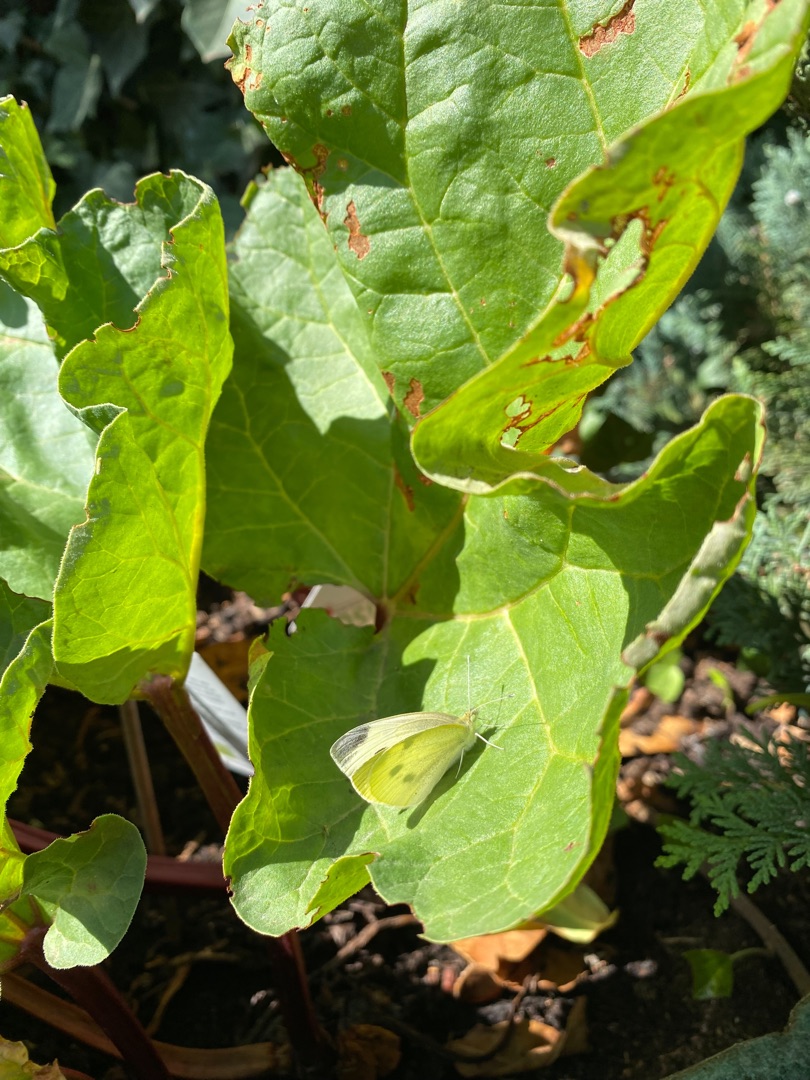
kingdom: Plantae
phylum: Tracheophyta
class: Magnoliopsida
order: Caryophyllales
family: Polygonaceae
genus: Rheum
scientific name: Rheum rhabarbarum
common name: Rabarber
